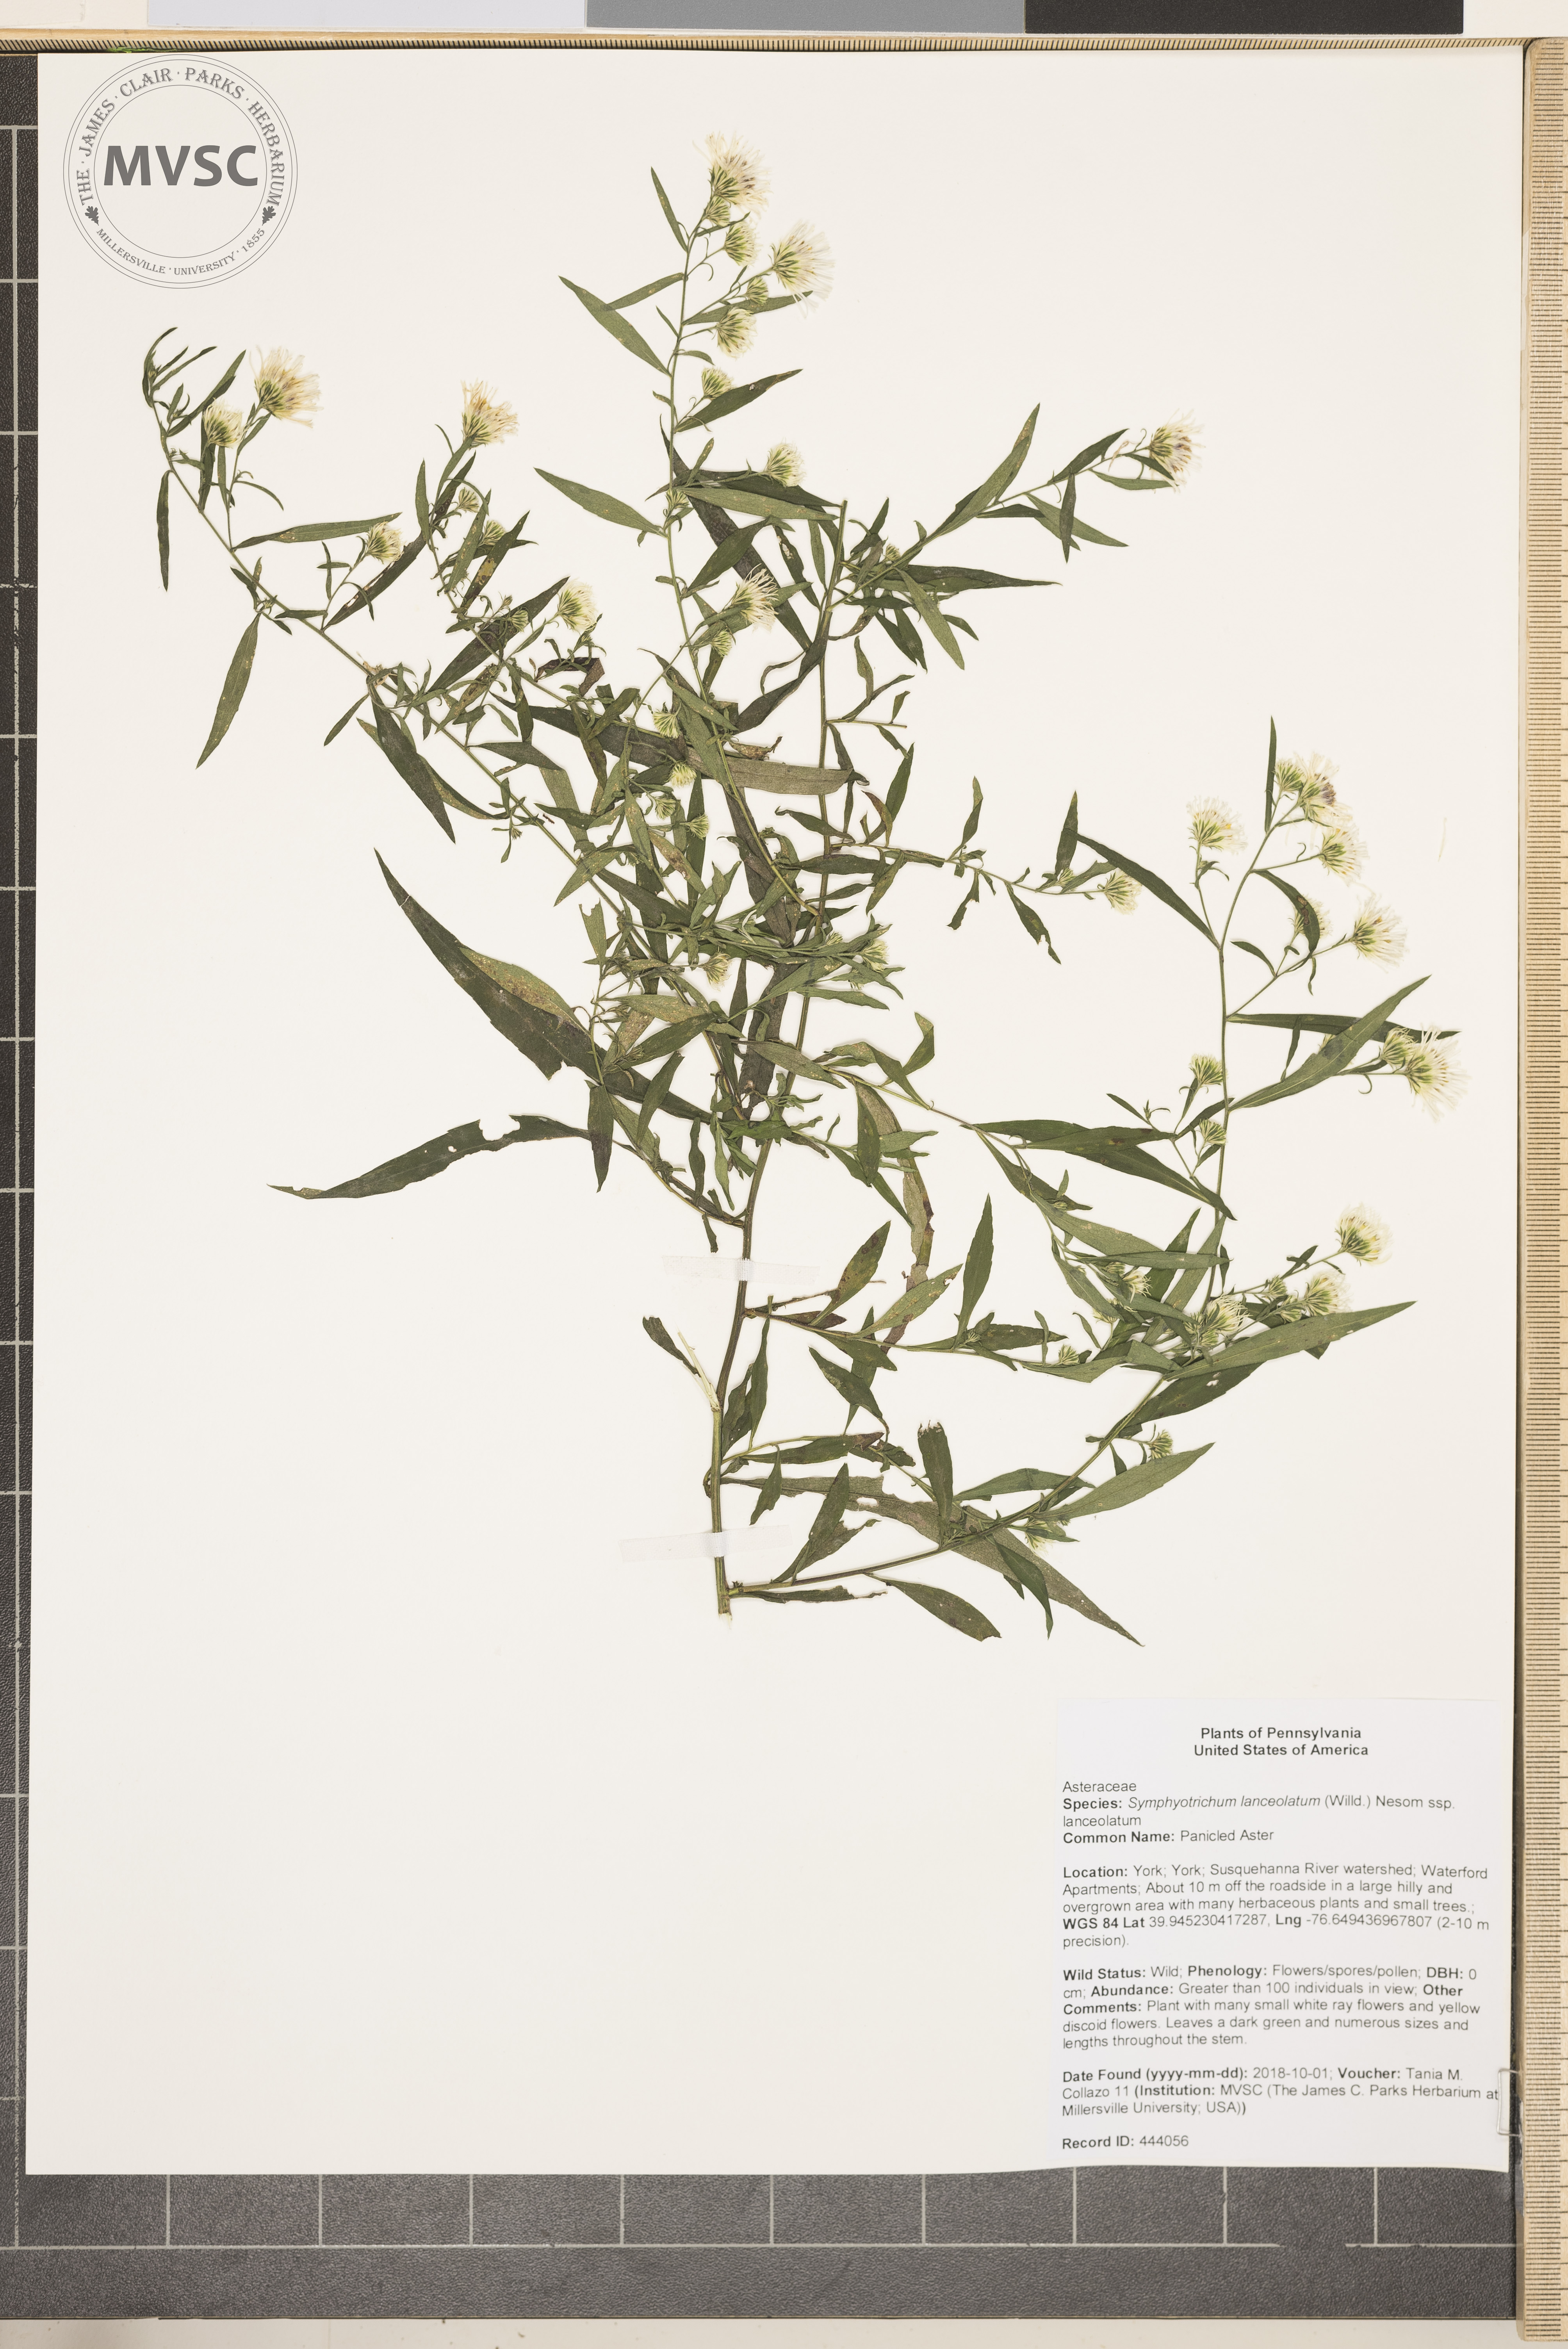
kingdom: Plantae
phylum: Tracheophyta
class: Magnoliopsida
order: Asterales
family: Asteraceae
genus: Symphyotrichum
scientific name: Symphyotrichum lanceolatum
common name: Panicled Aster
